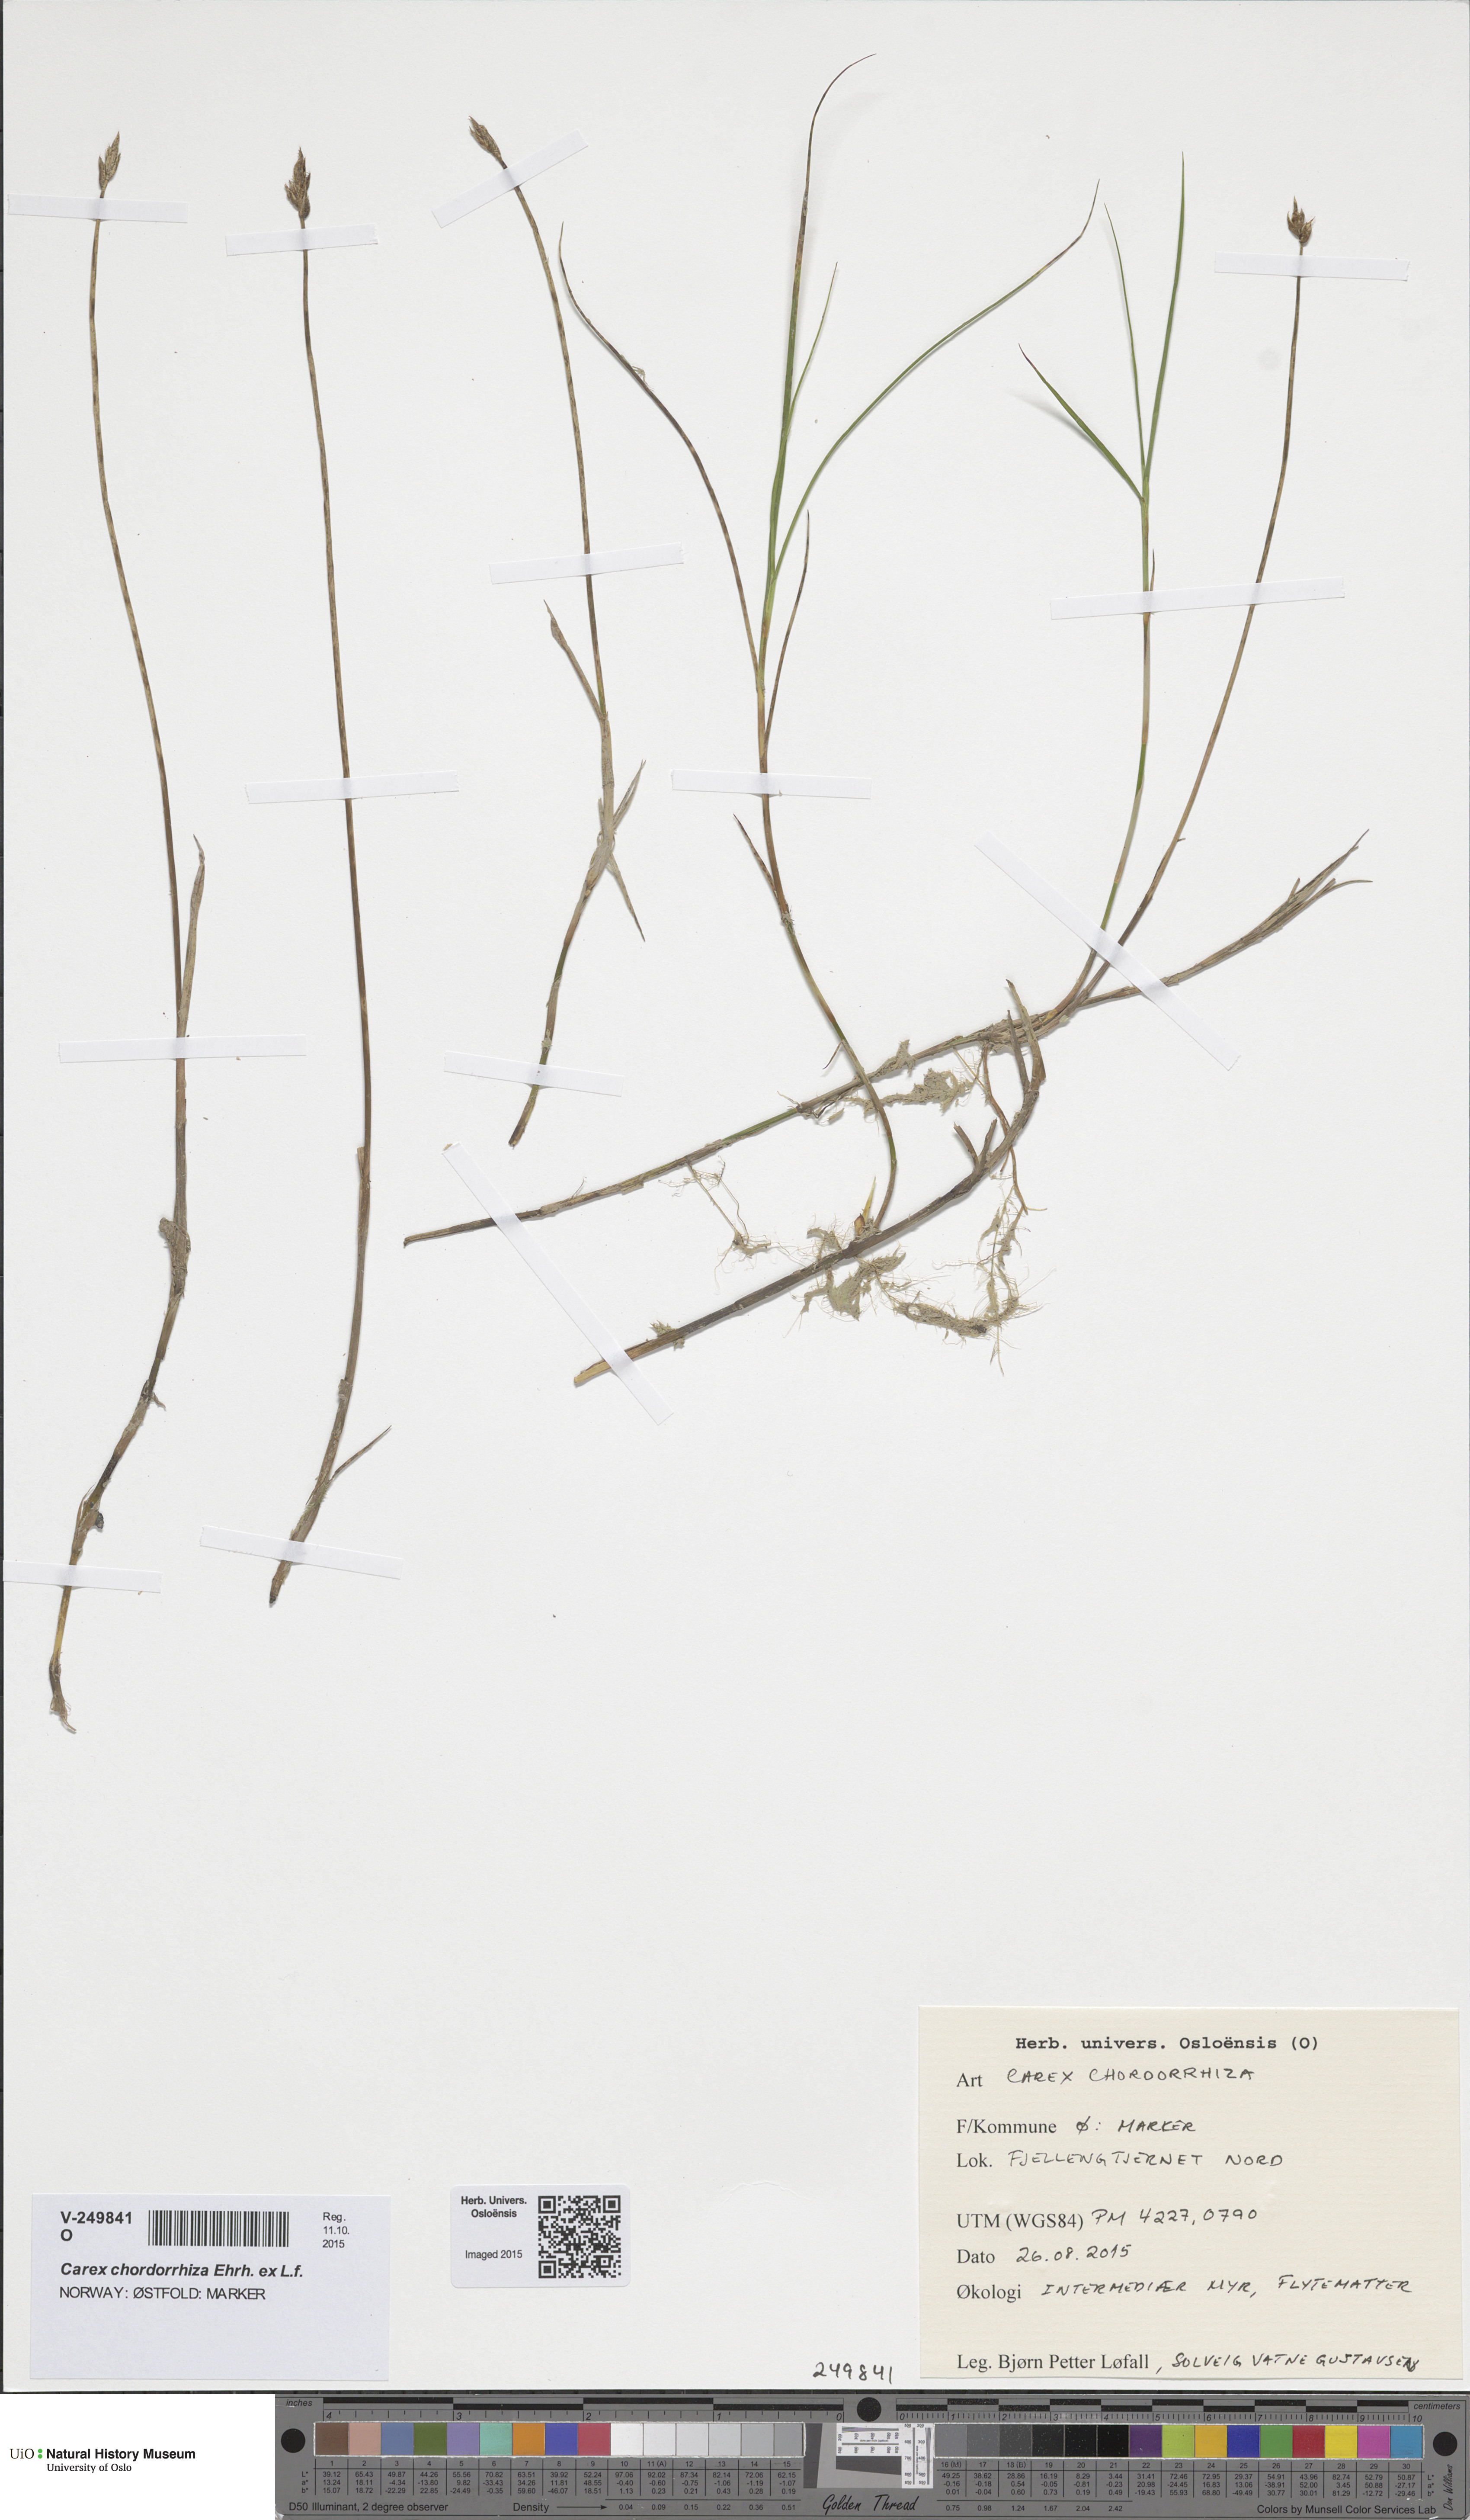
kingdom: Plantae
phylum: Tracheophyta
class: Liliopsida
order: Poales
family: Cyperaceae
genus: Carex
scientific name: Carex chordorrhiza
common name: String sedge
